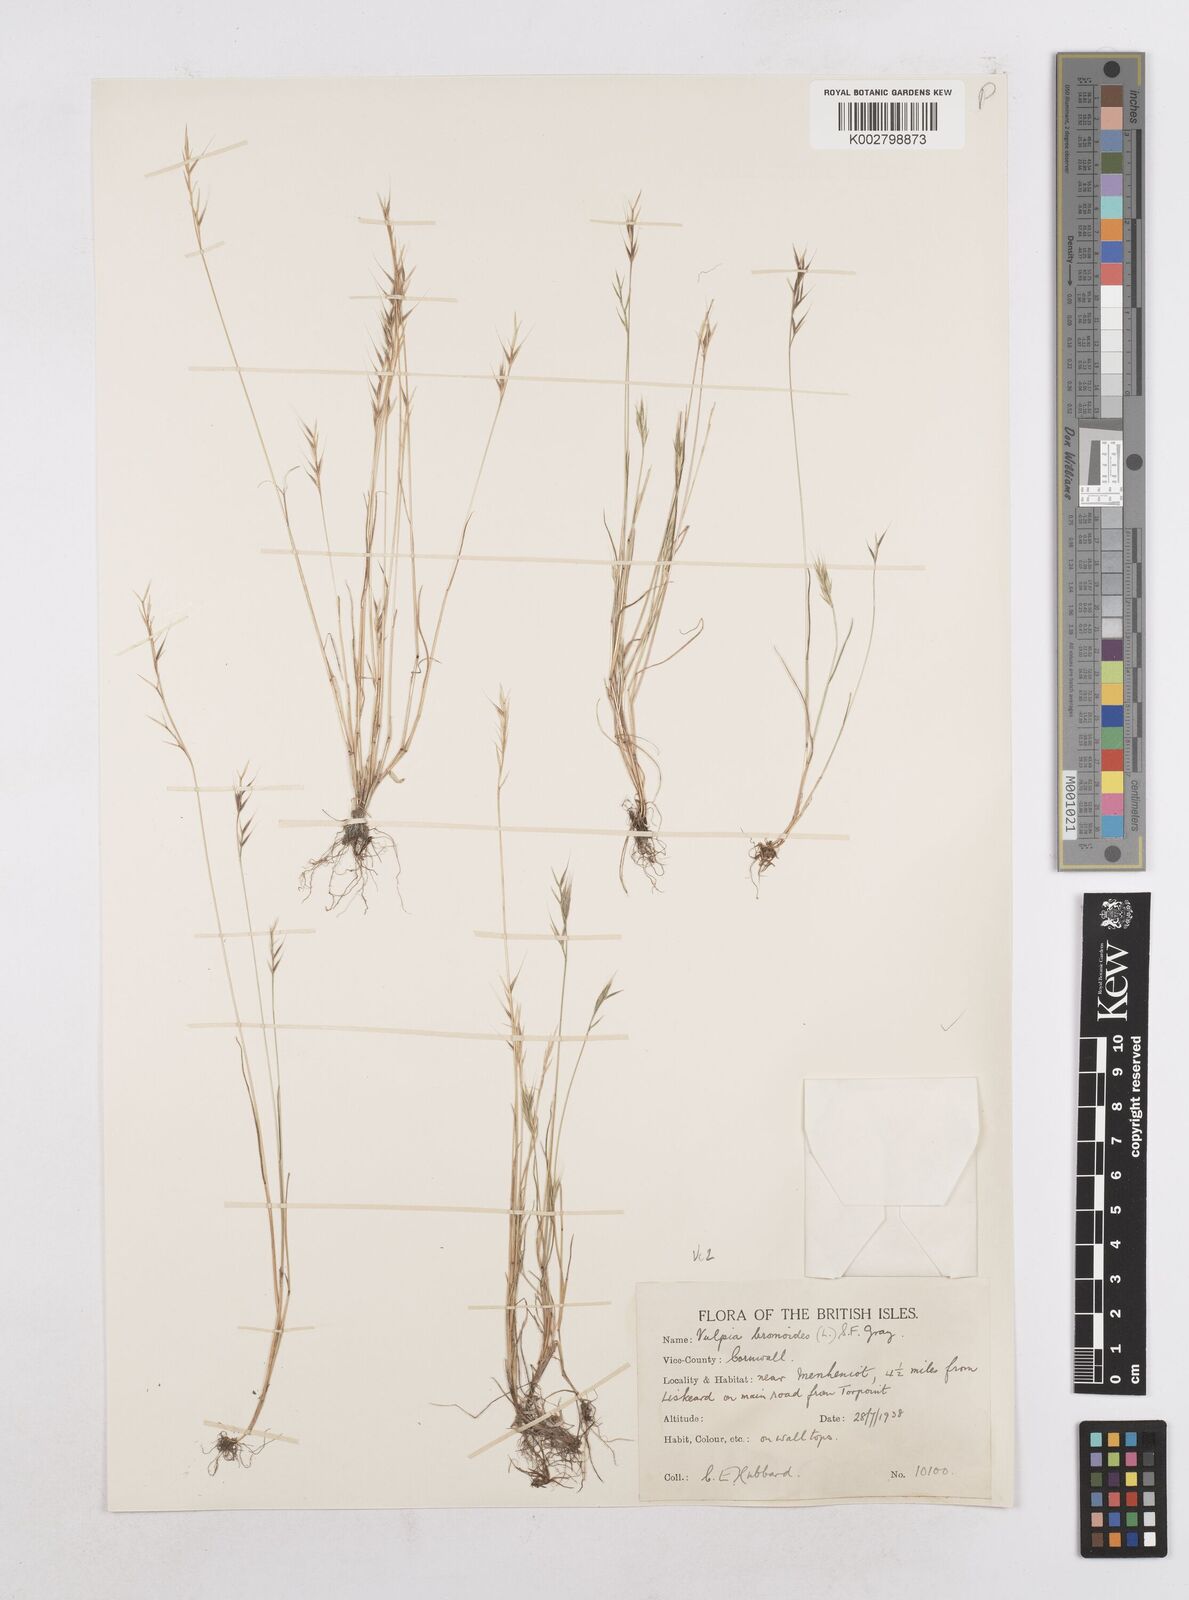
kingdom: Plantae
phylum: Tracheophyta
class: Liliopsida
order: Poales
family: Poaceae
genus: Festuca
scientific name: Festuca bromoides
